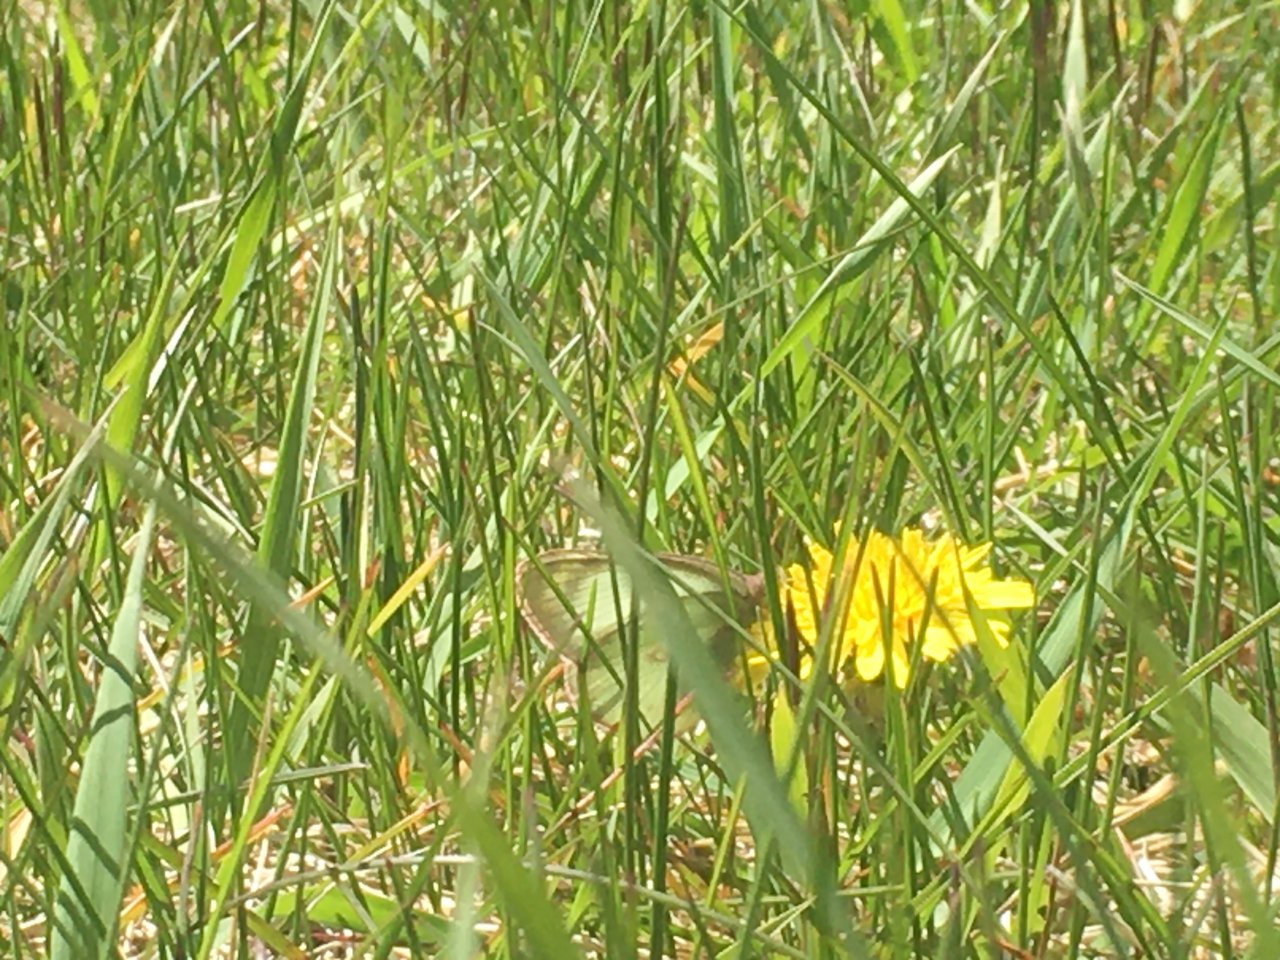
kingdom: Animalia
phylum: Arthropoda
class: Insecta
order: Lepidoptera
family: Pieridae
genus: Colias
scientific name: Colias philodice
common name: Clouded Sulphur
